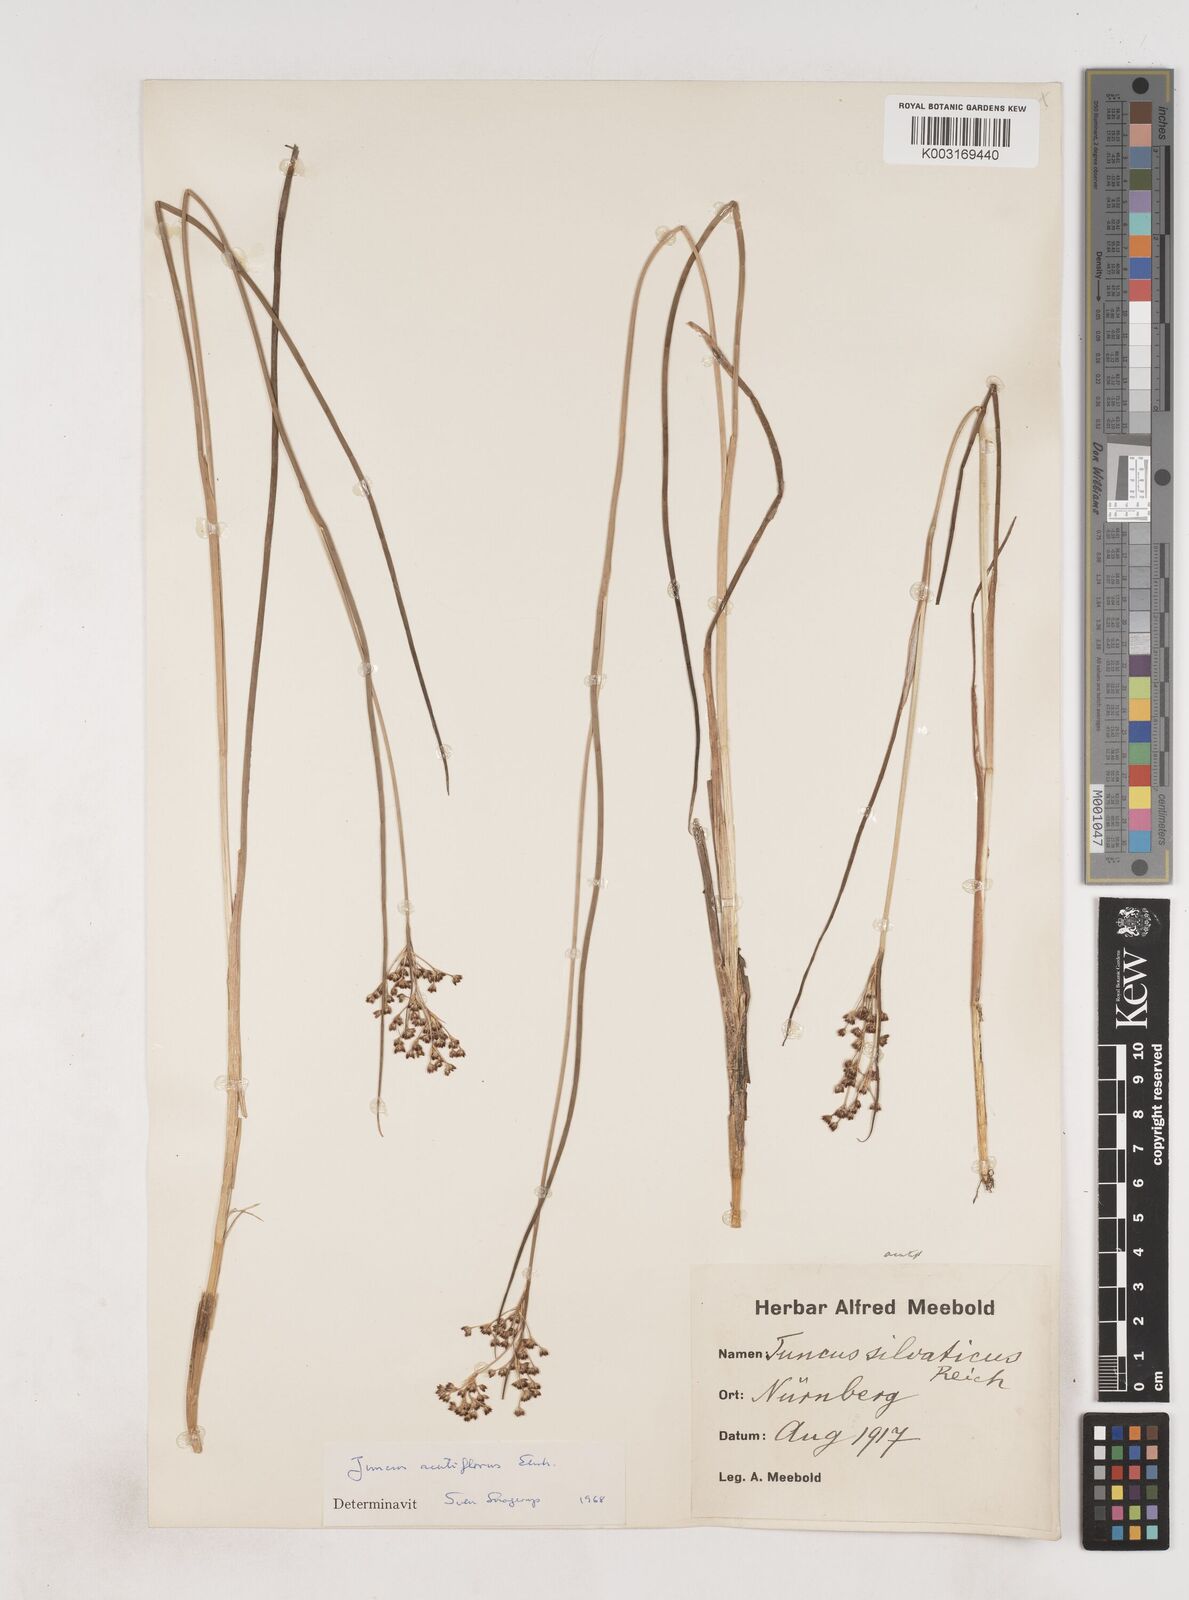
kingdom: Plantae
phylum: Tracheophyta
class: Liliopsida
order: Poales
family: Juncaceae
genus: Juncus
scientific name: Juncus acutiflorus
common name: Sharp-flowered rush
